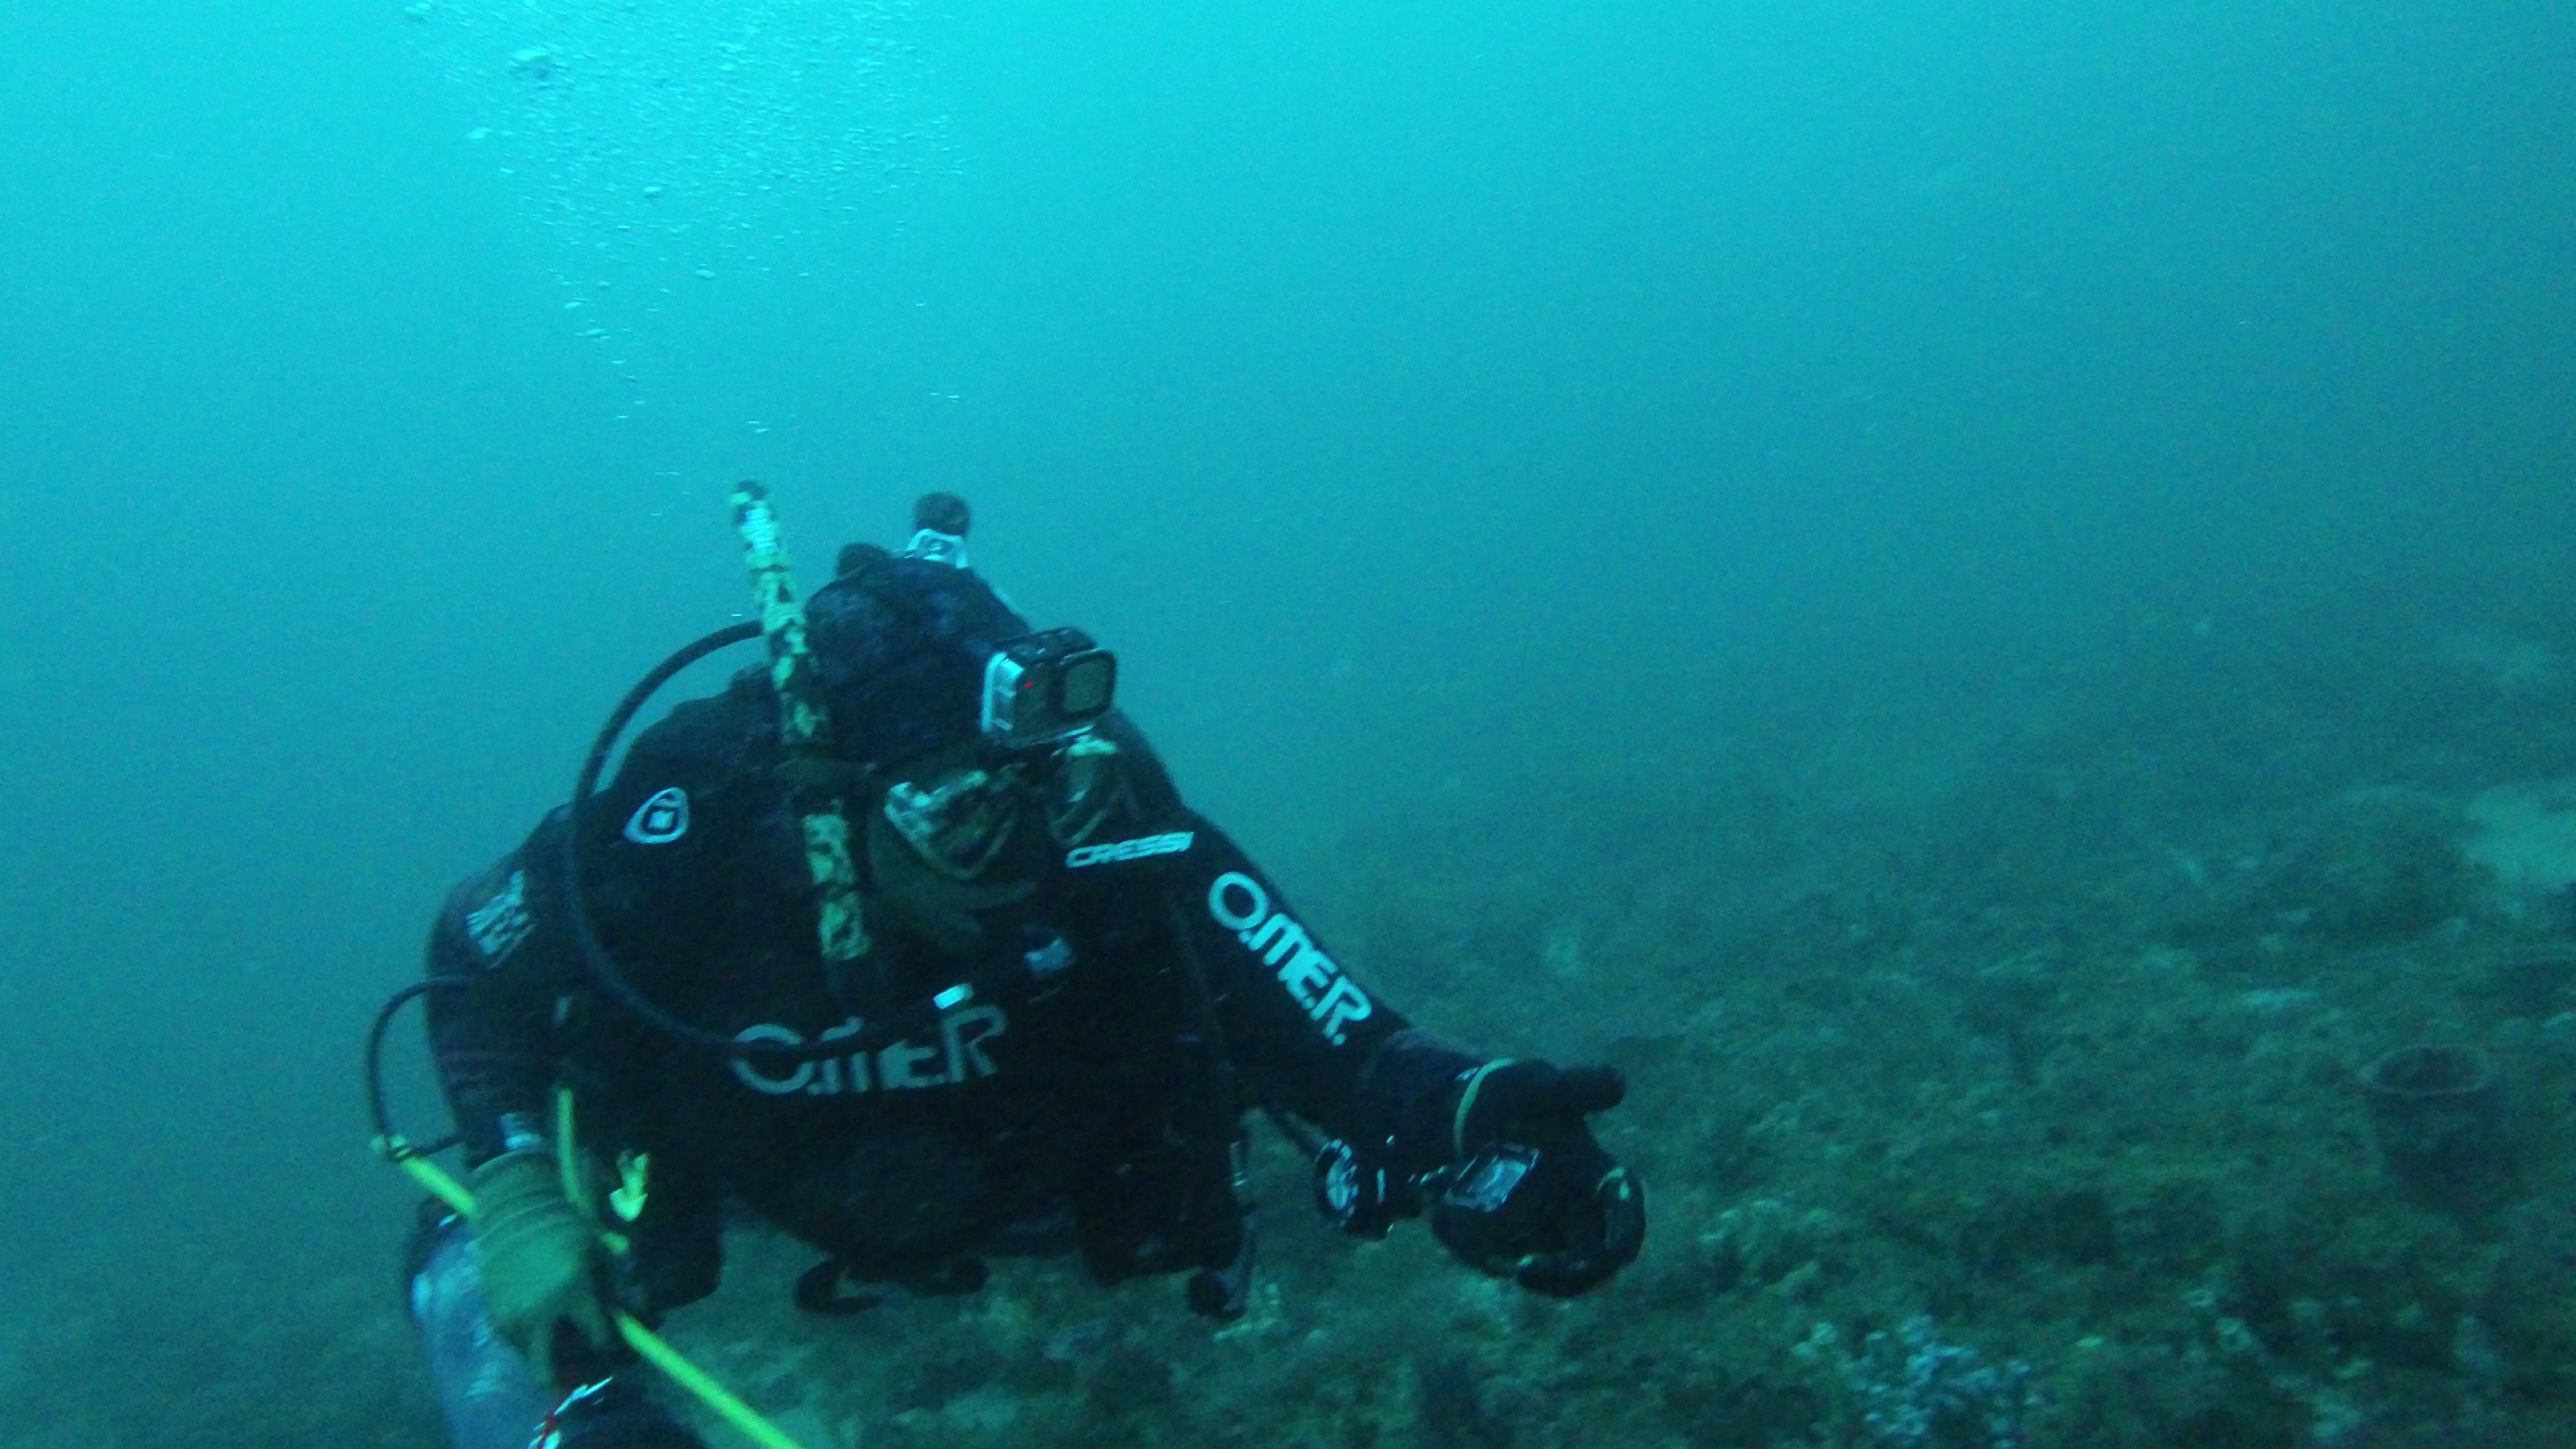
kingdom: Animalia
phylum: Chordata
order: Scorpaeniformes
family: Scorpaenidae
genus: Pterois
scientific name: Pterois volitans
